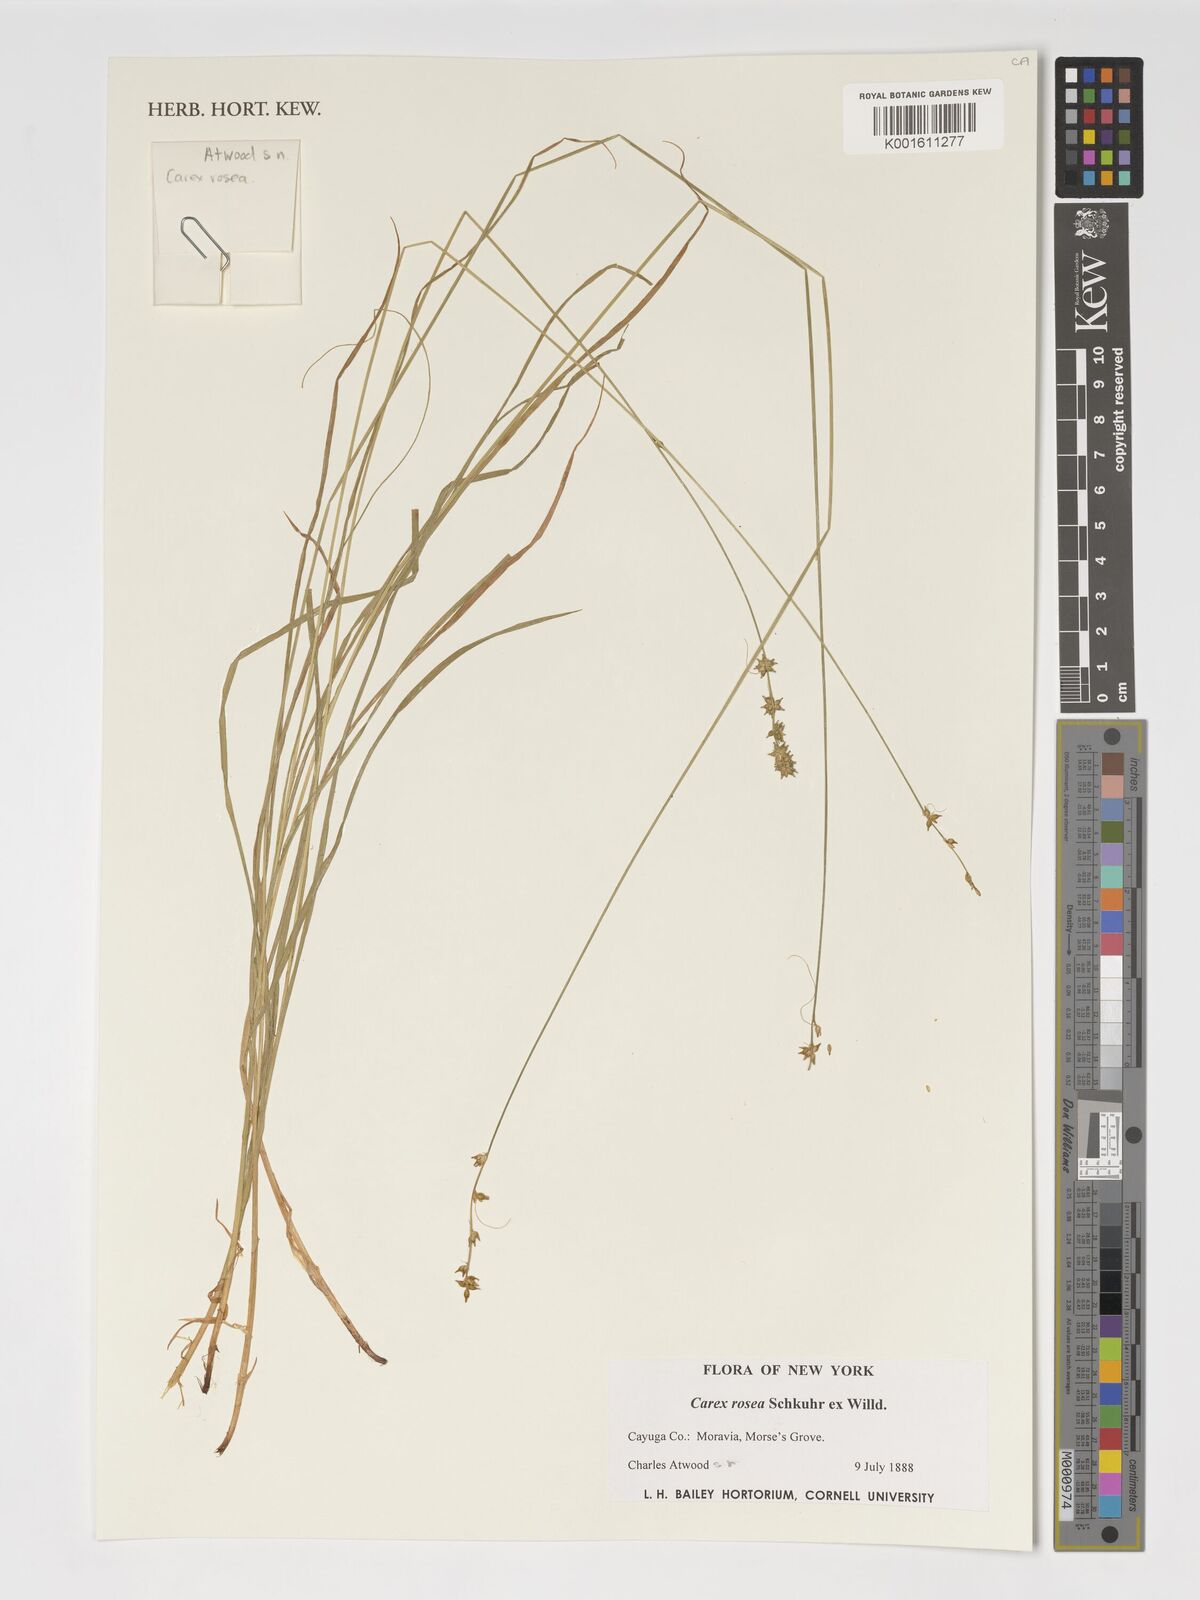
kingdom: Plantae
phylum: Tracheophyta
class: Liliopsida
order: Poales
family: Cyperaceae
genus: Carex
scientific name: Carex rosea
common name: Curly-styled wood sedge
